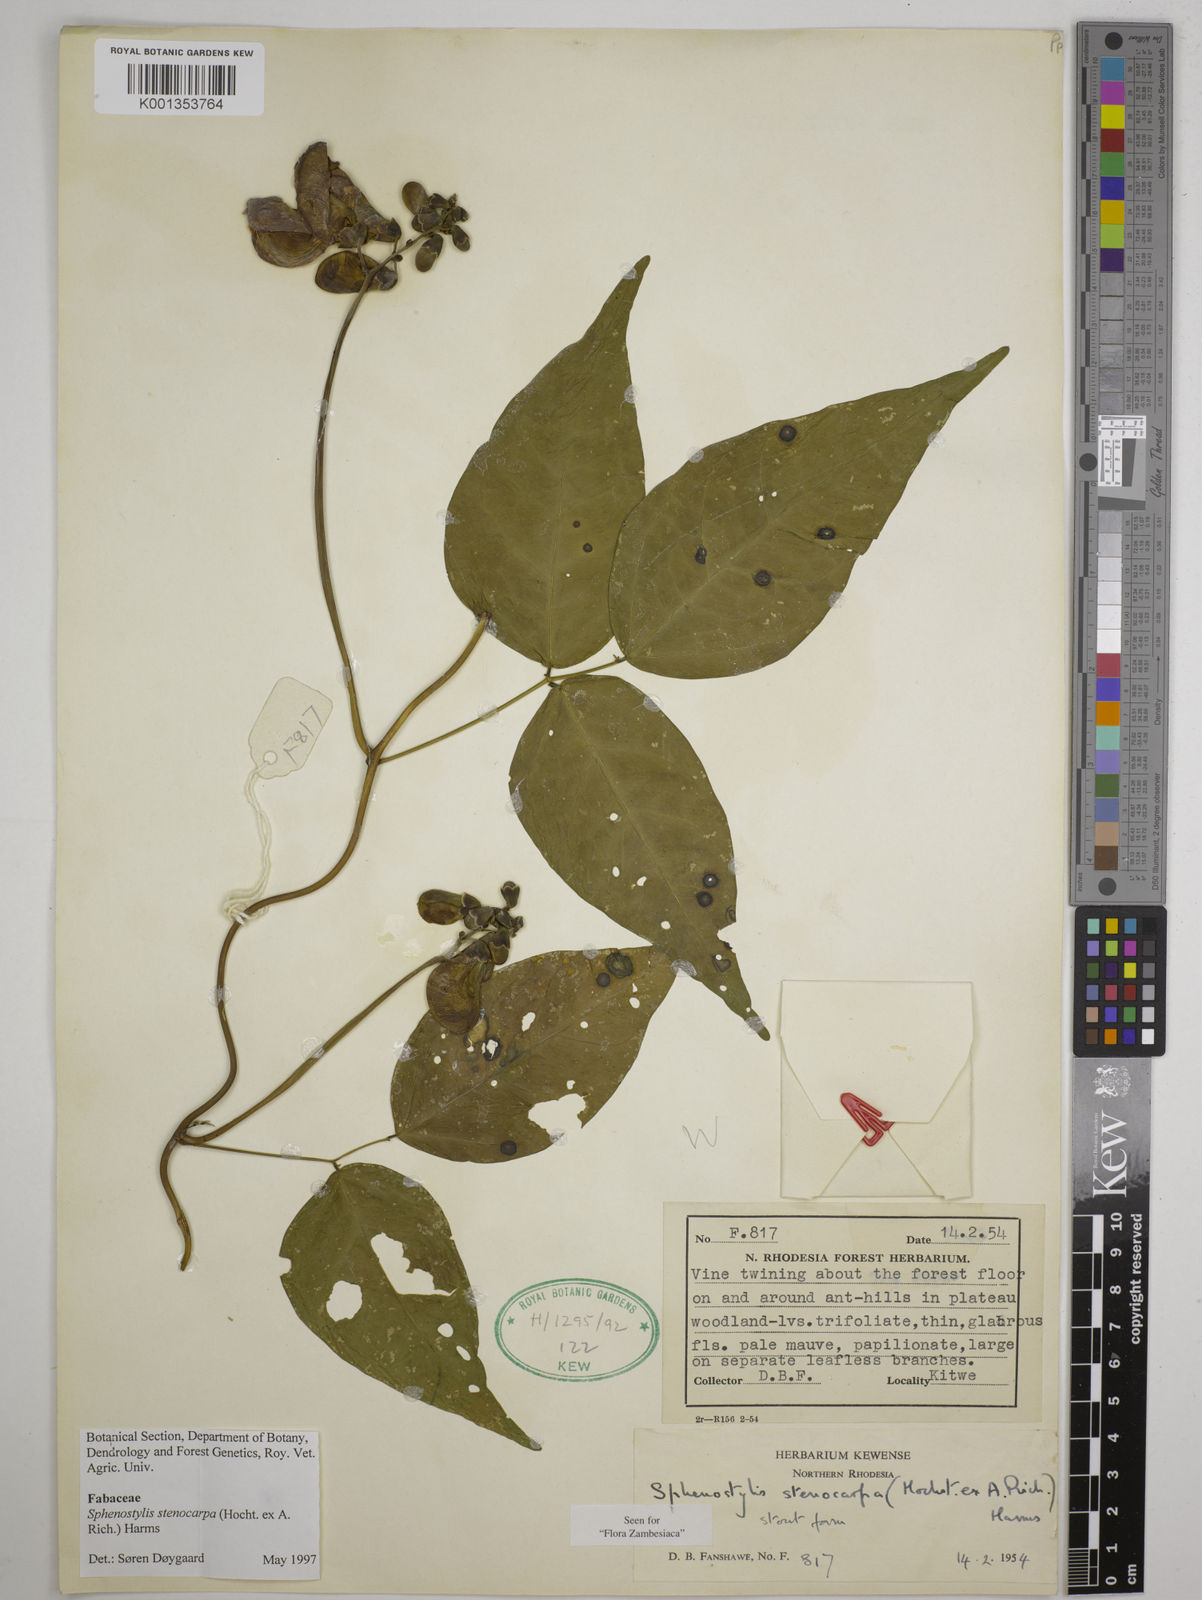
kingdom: Plantae
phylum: Tracheophyta
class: Magnoliopsida
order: Fabales
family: Fabaceae
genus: Sphenostylis
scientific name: Sphenostylis stenocarpa
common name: Yam-pea
